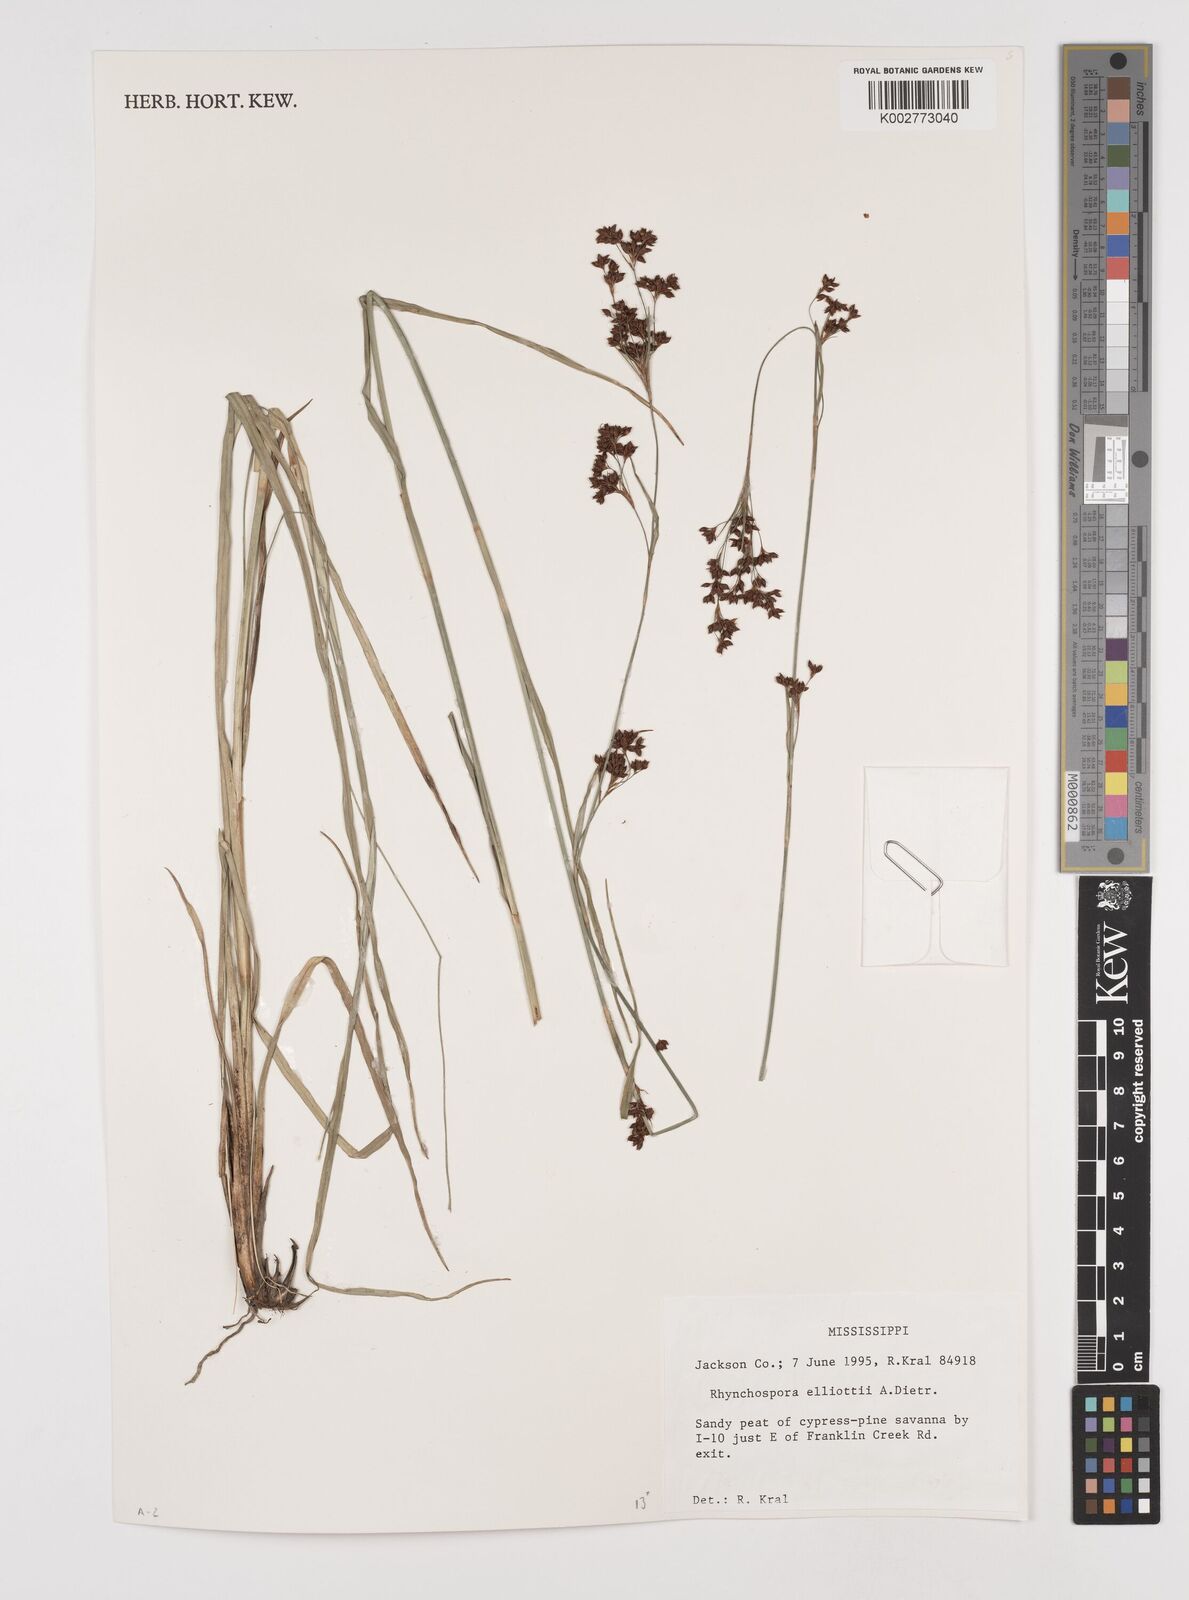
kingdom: Plantae
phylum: Tracheophyta
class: Liliopsida
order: Poales
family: Cyperaceae
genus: Rhynchospora
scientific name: Rhynchospora elliottii
